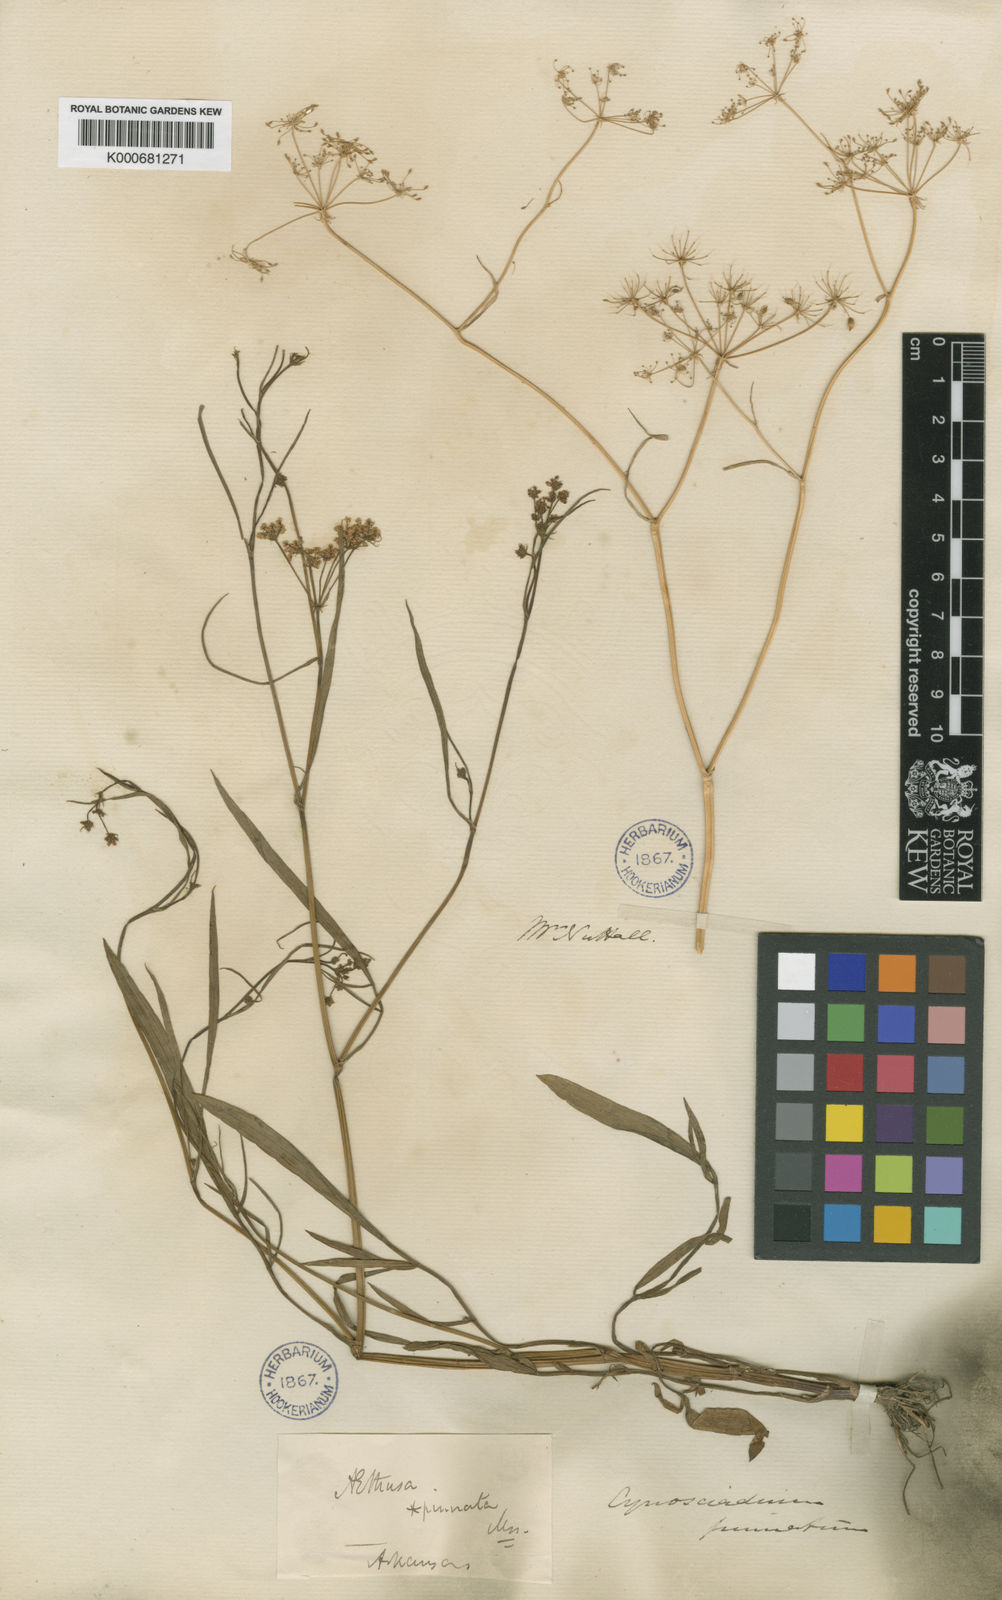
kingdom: Plantae
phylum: Tracheophyta
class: Magnoliopsida
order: Apiales
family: Apiaceae
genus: Limnosciadium
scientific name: Limnosciadium pinnatum
